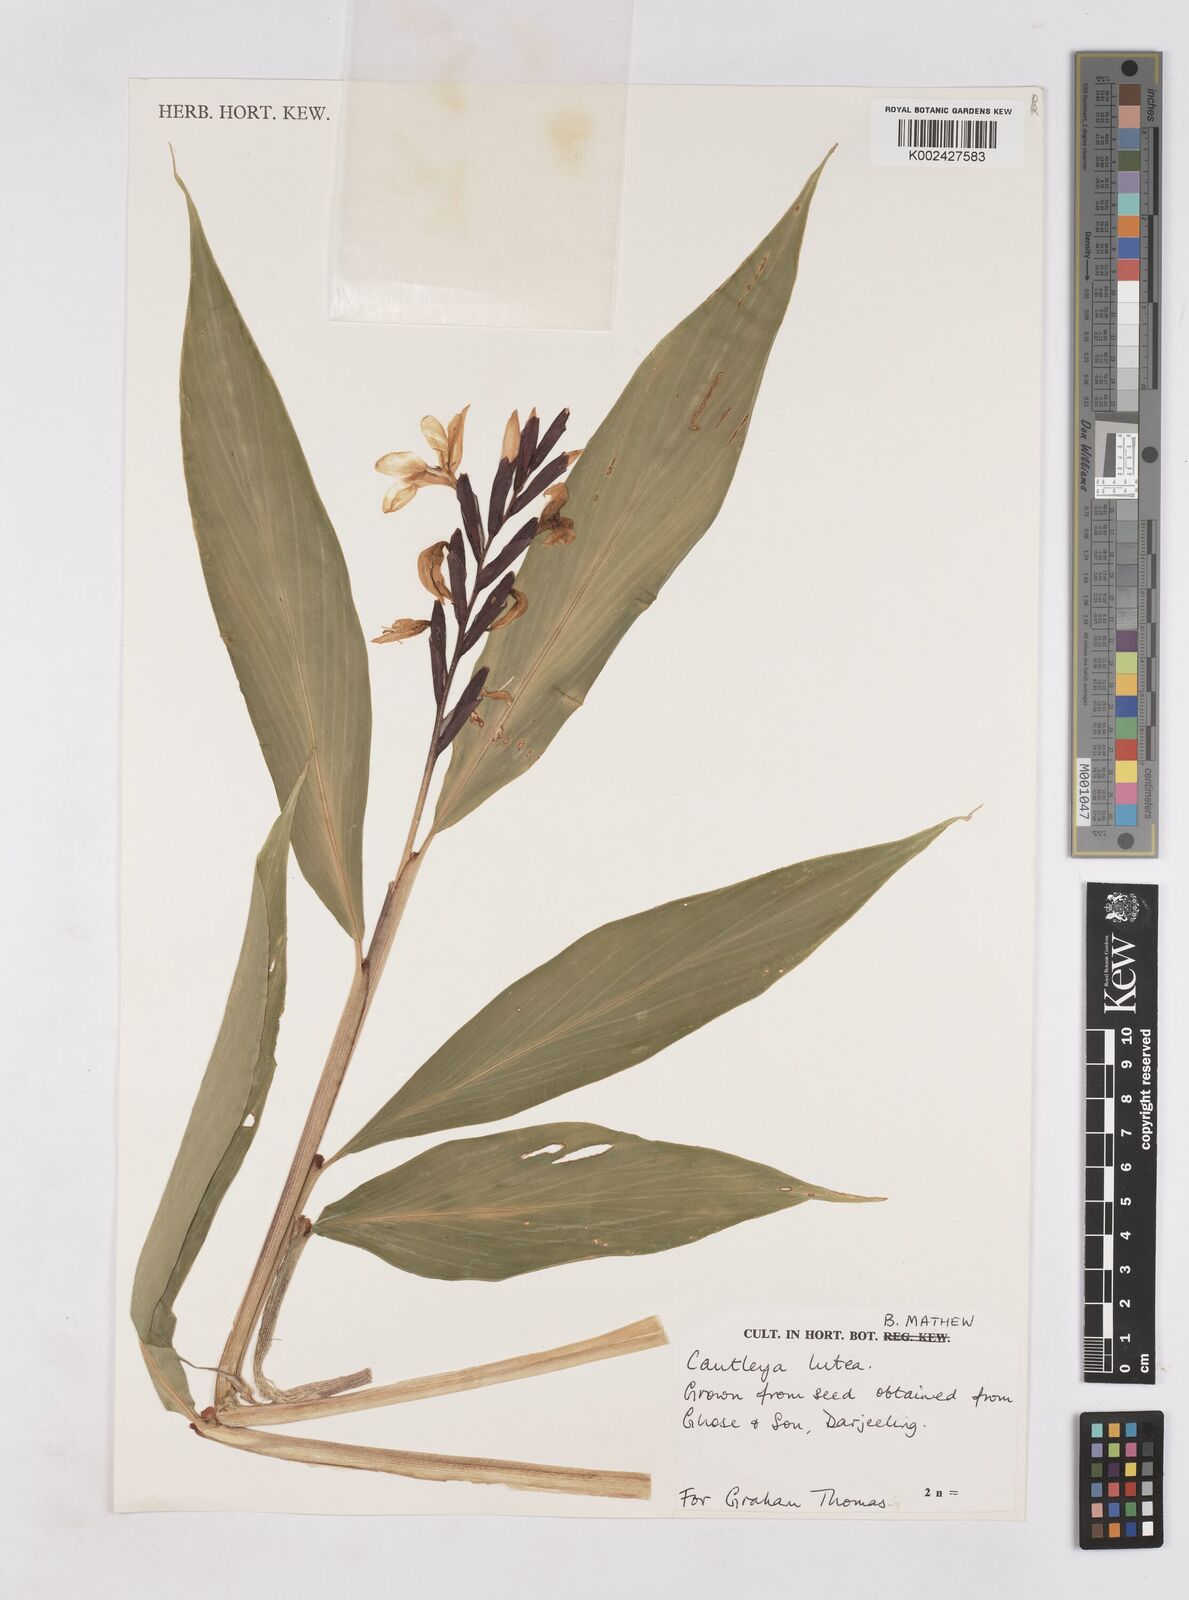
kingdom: Plantae
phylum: Tracheophyta
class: Liliopsida
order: Zingiberales
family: Zingiberaceae
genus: Cautleya
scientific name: Cautleya gracilis
